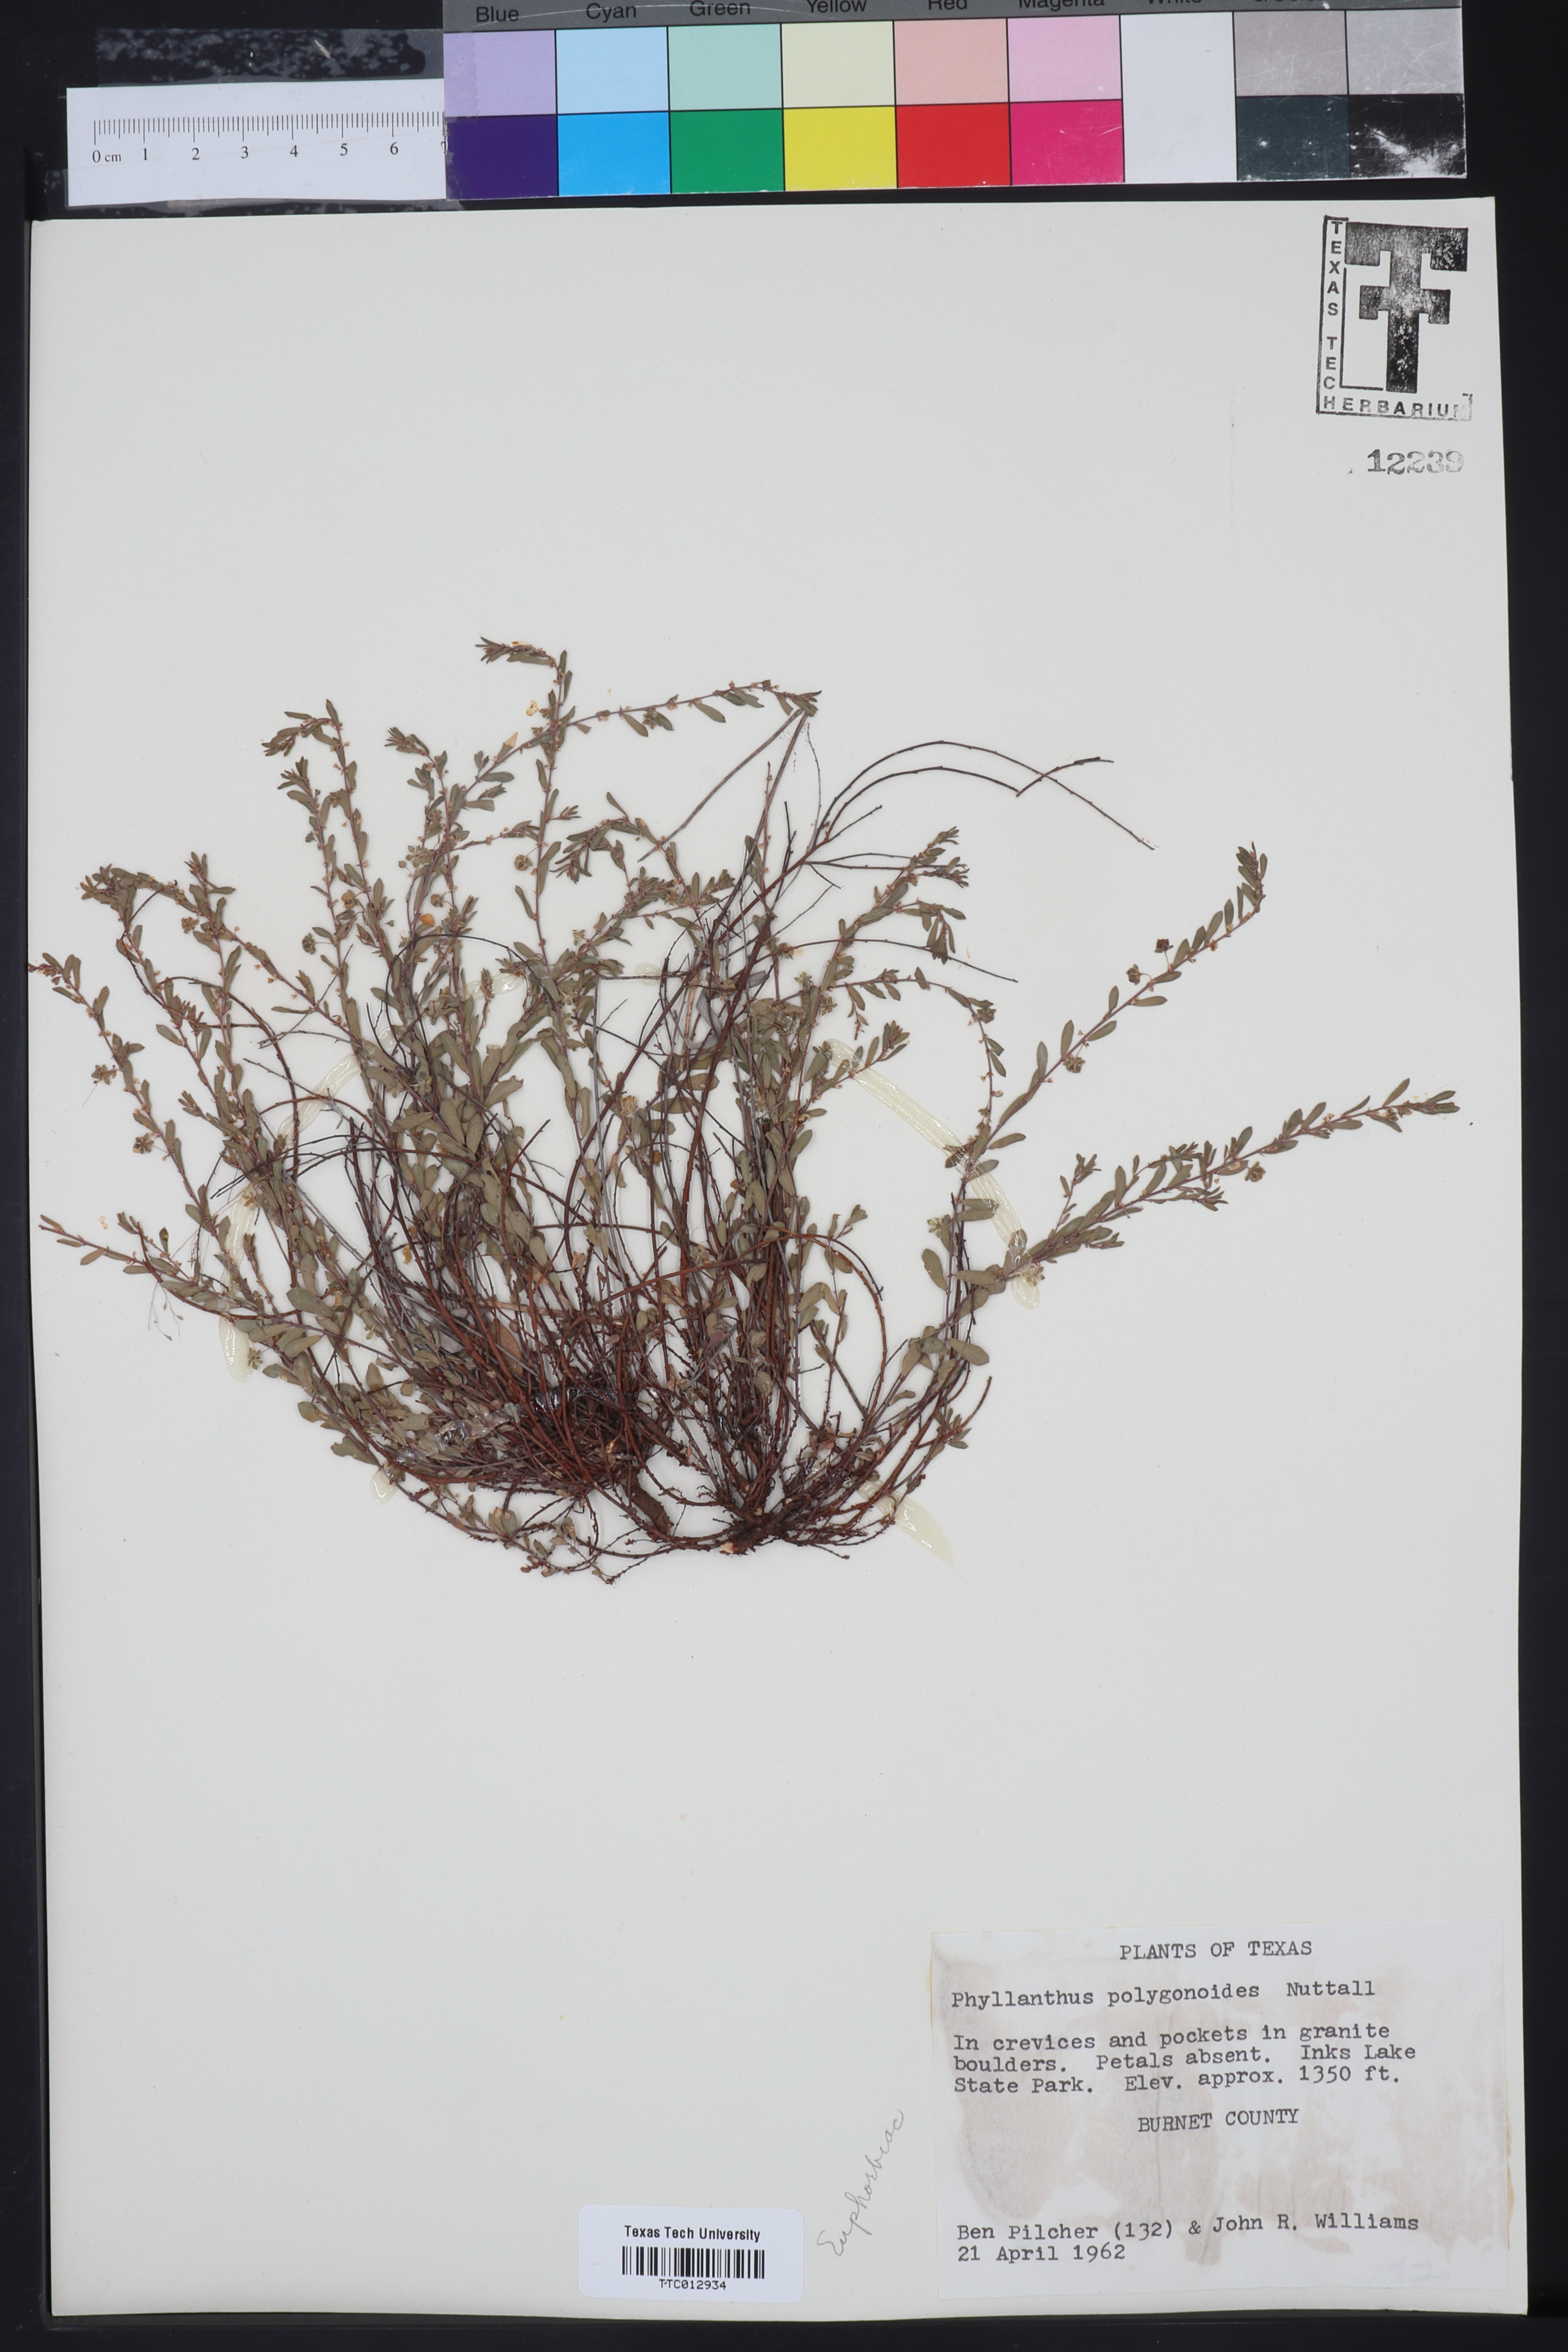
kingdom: Plantae
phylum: Tracheophyta
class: Magnoliopsida
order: Malpighiales
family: Phyllanthaceae
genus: Phyllanthus
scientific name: Phyllanthus polygonoides
